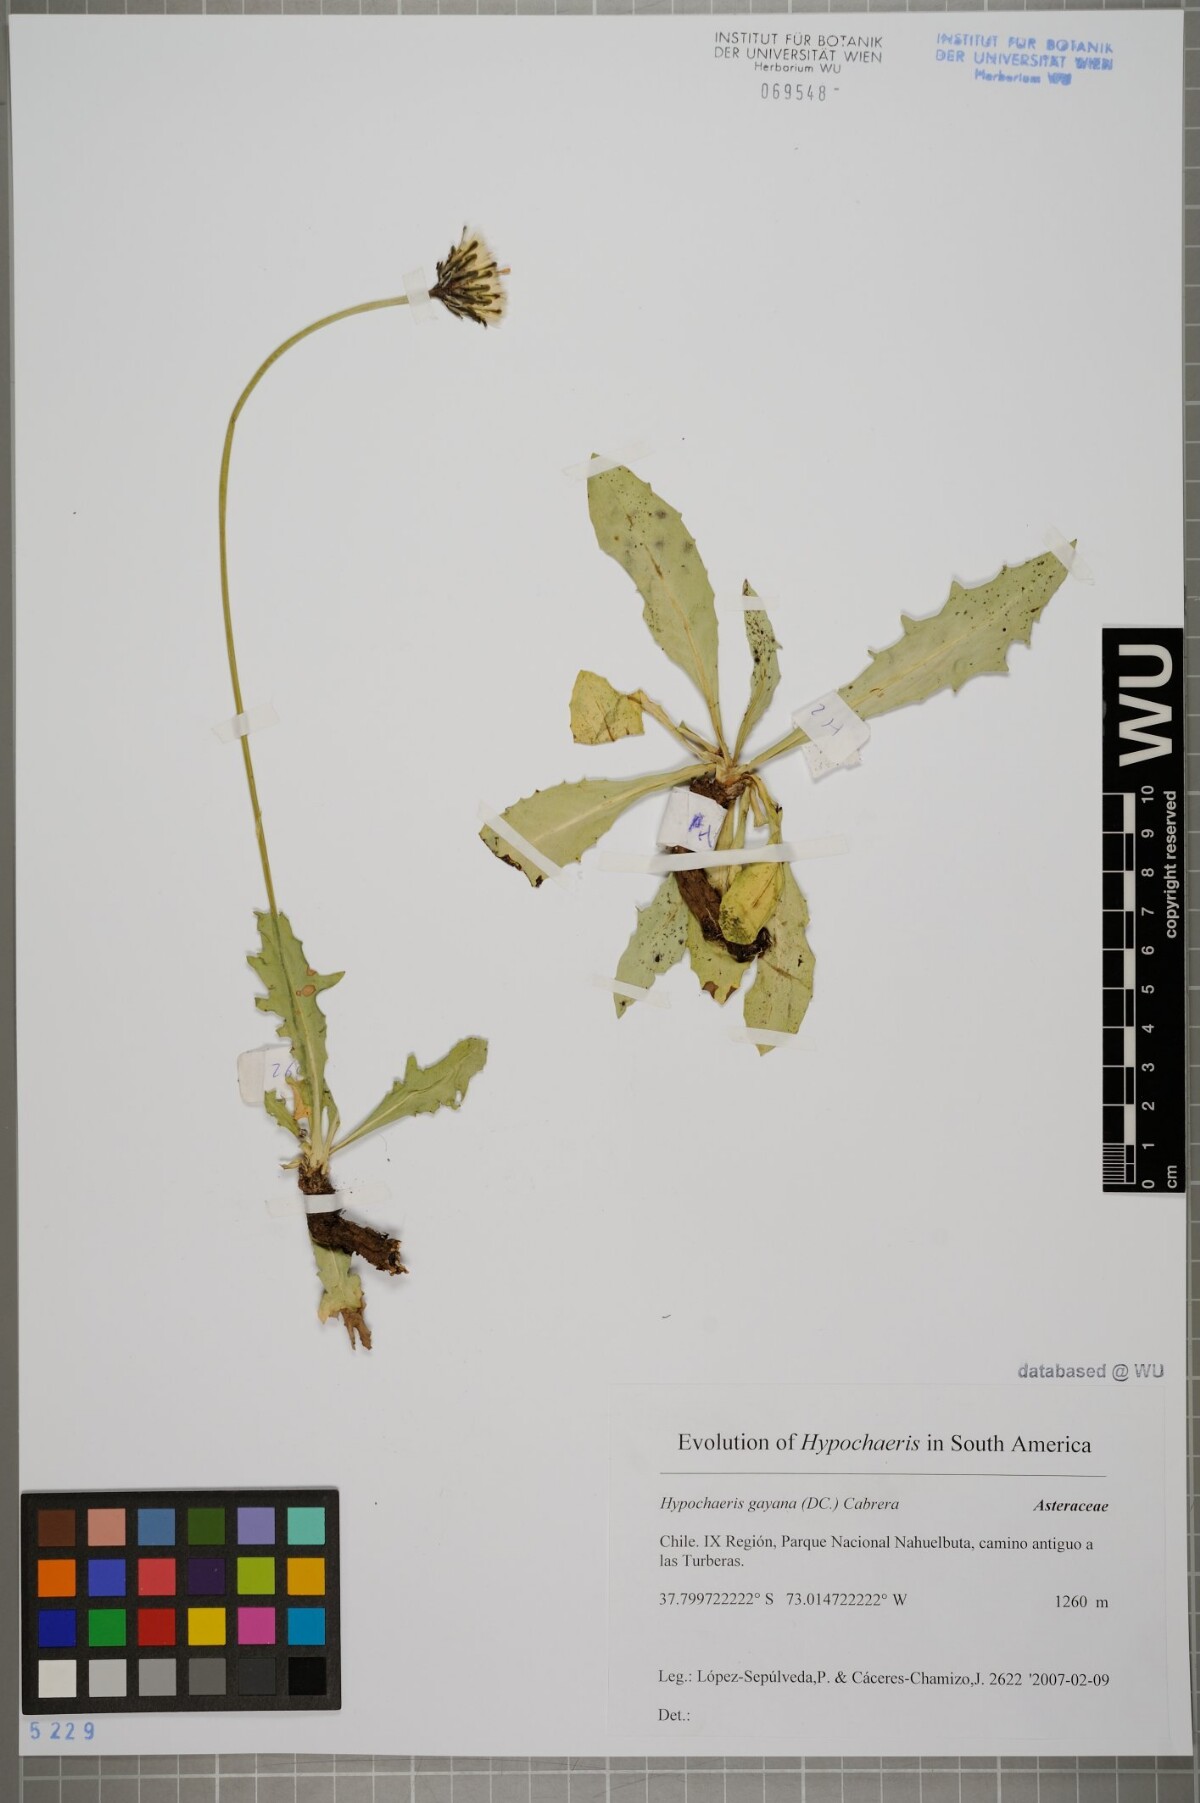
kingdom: Plantae
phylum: Tracheophyta
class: Magnoliopsida
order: Asterales
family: Asteraceae
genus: Hypochaeris
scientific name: Hypochaeris melanolepis
